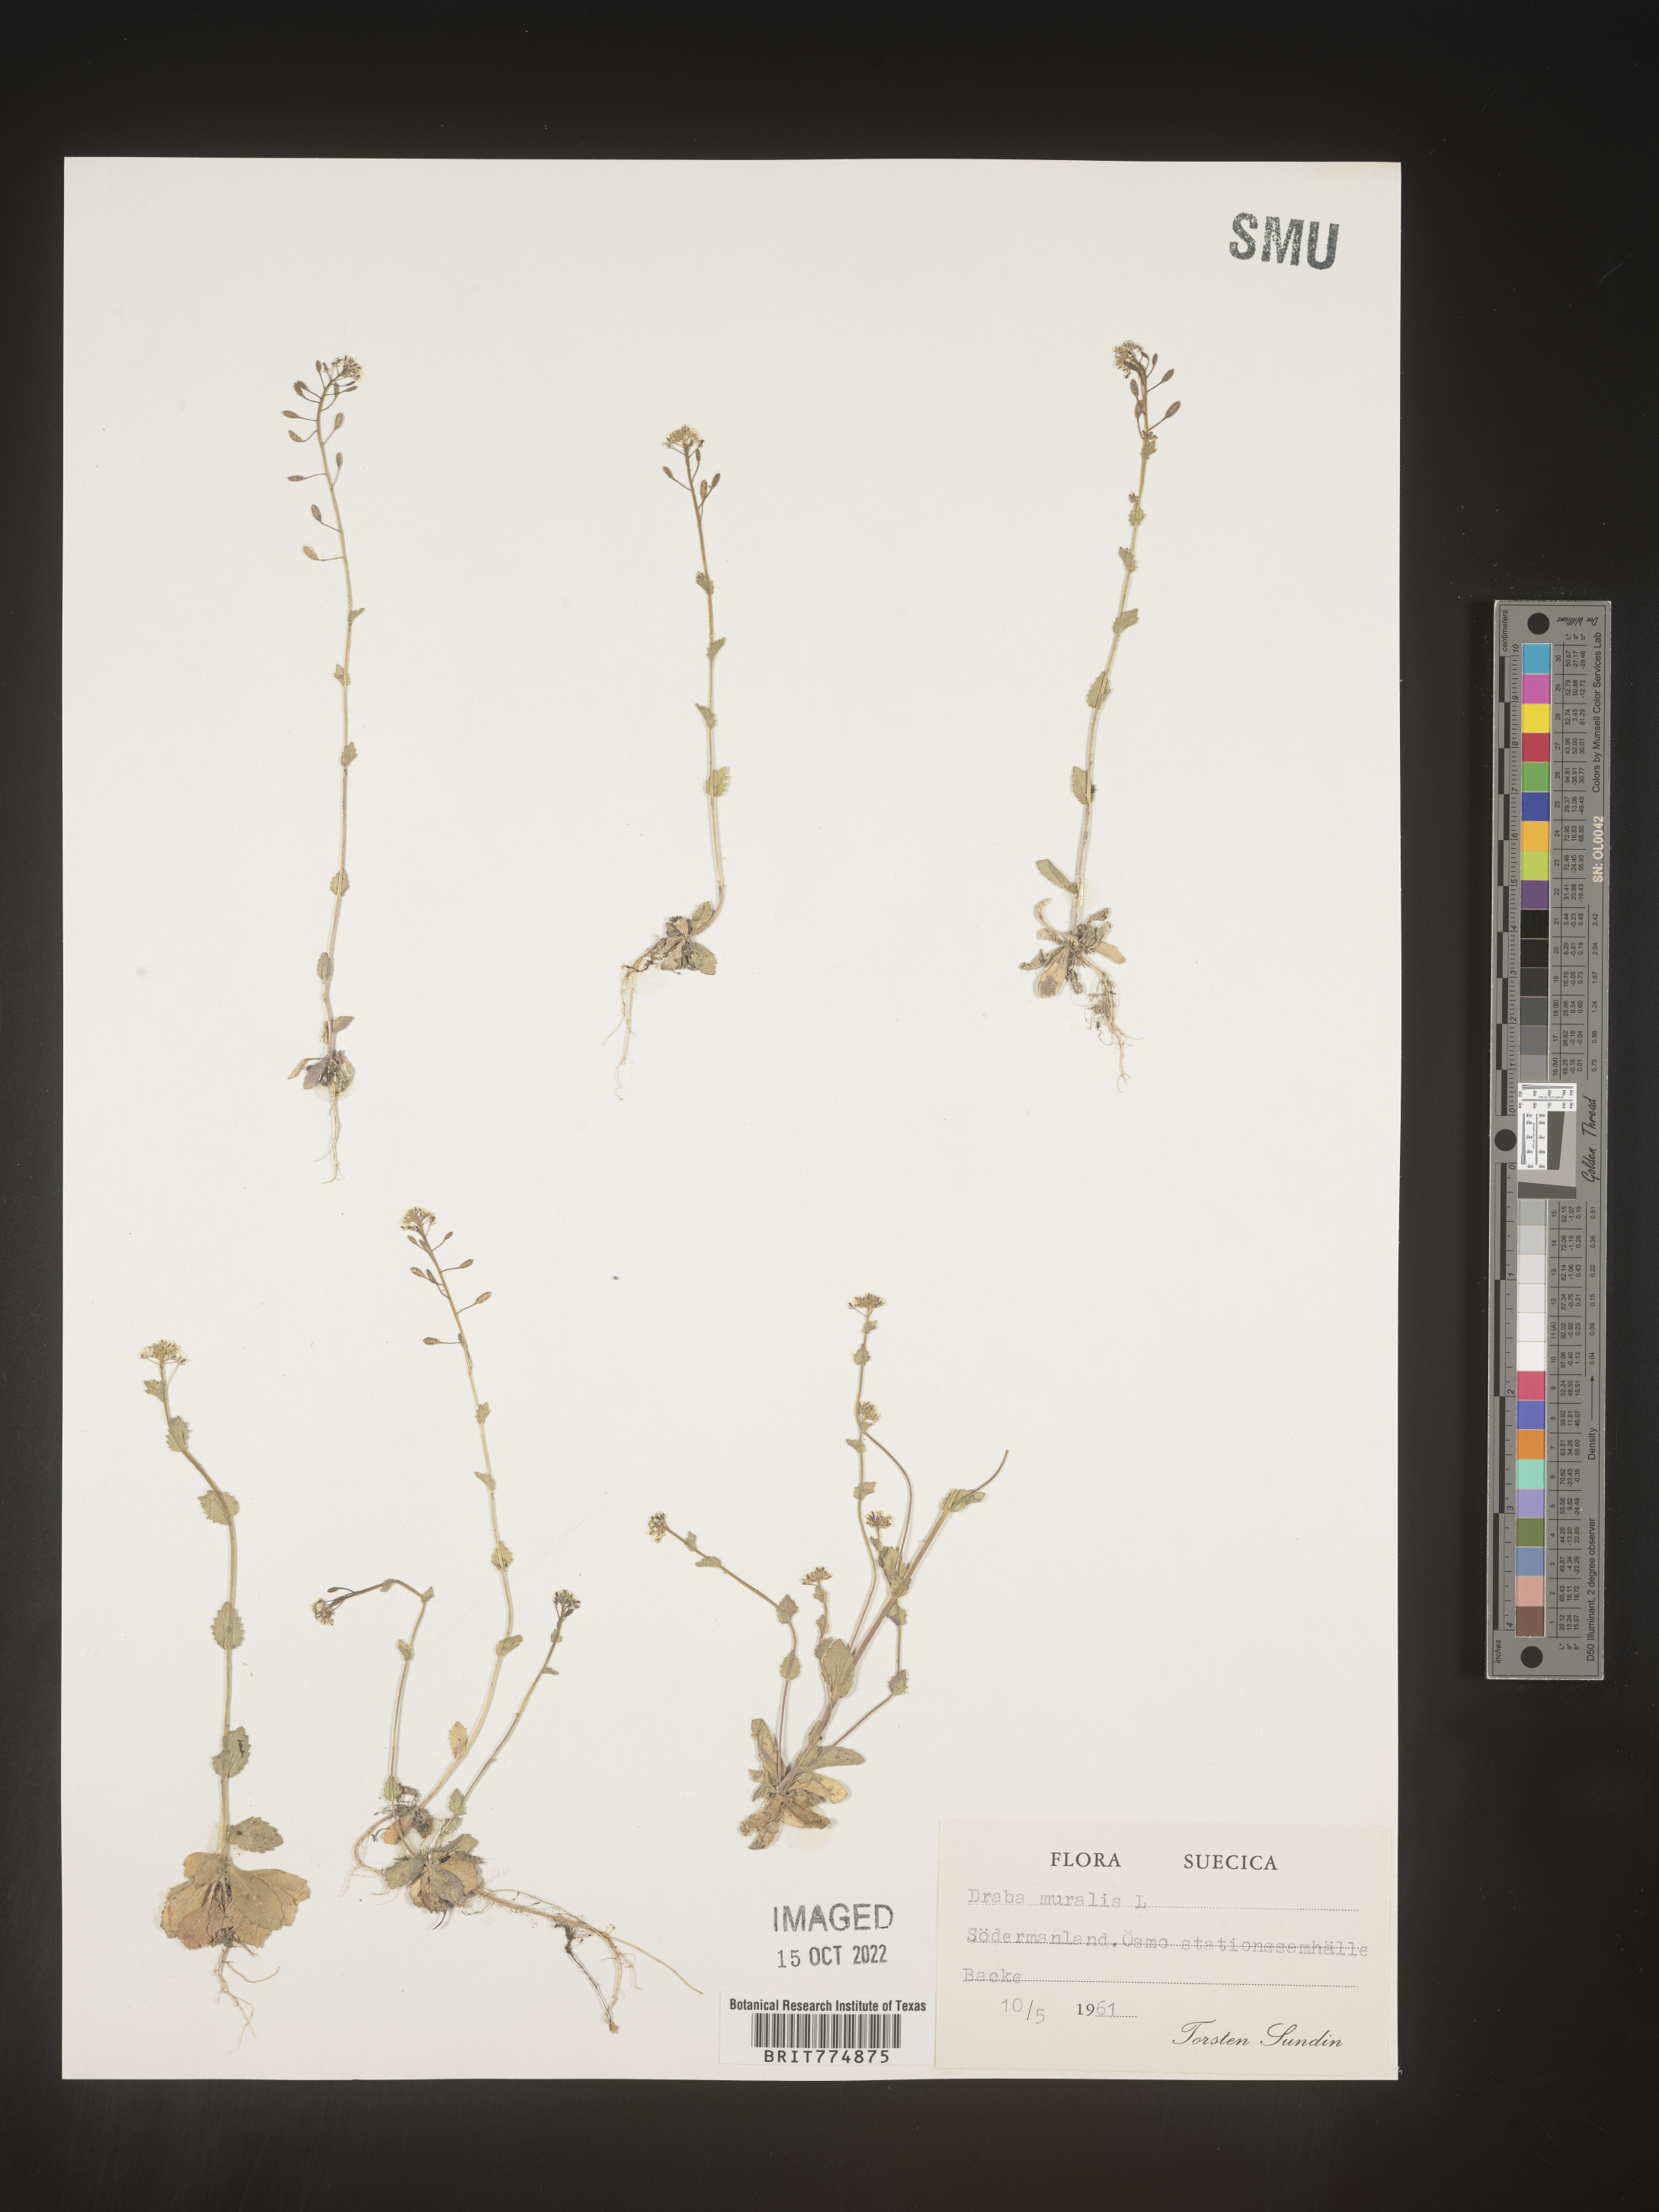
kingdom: Plantae
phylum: Tracheophyta
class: Magnoliopsida
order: Brassicales
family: Brassicaceae
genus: Draba
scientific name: Draba
